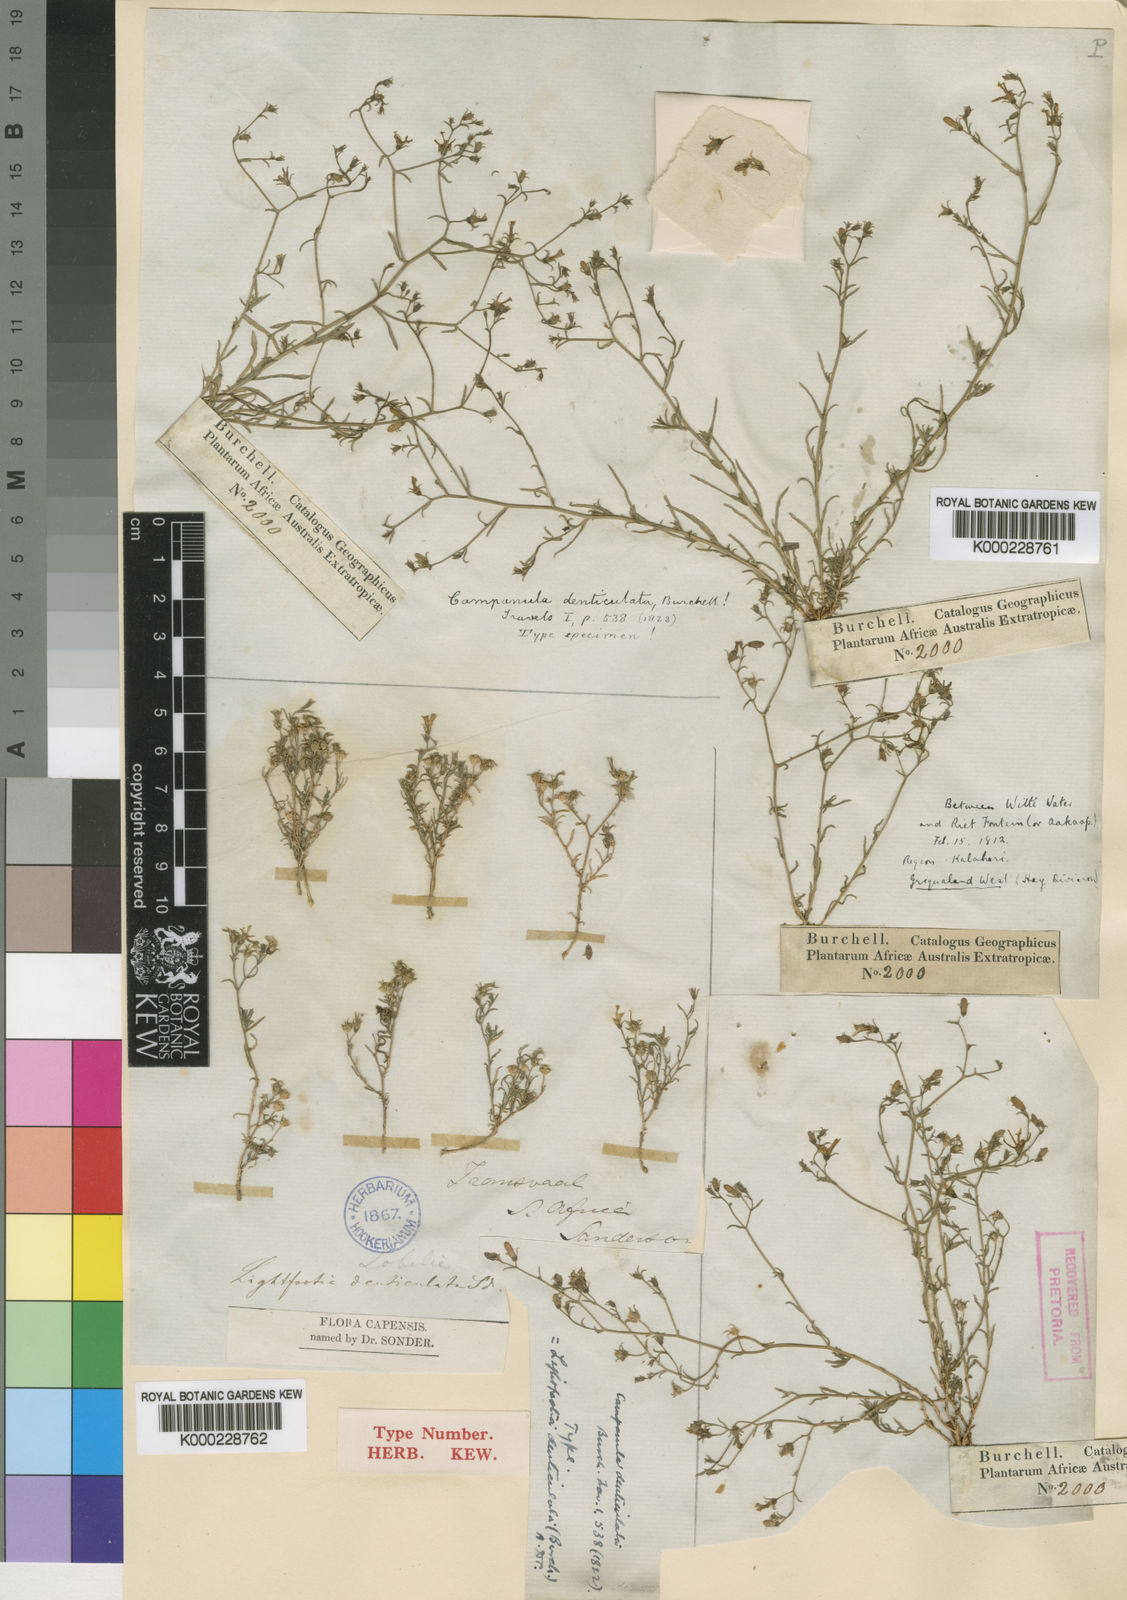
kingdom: Plantae
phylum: Tracheophyta
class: Magnoliopsida
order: Asterales
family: Campanulaceae
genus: Wahlenbergia
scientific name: Wahlenbergia denticulata
